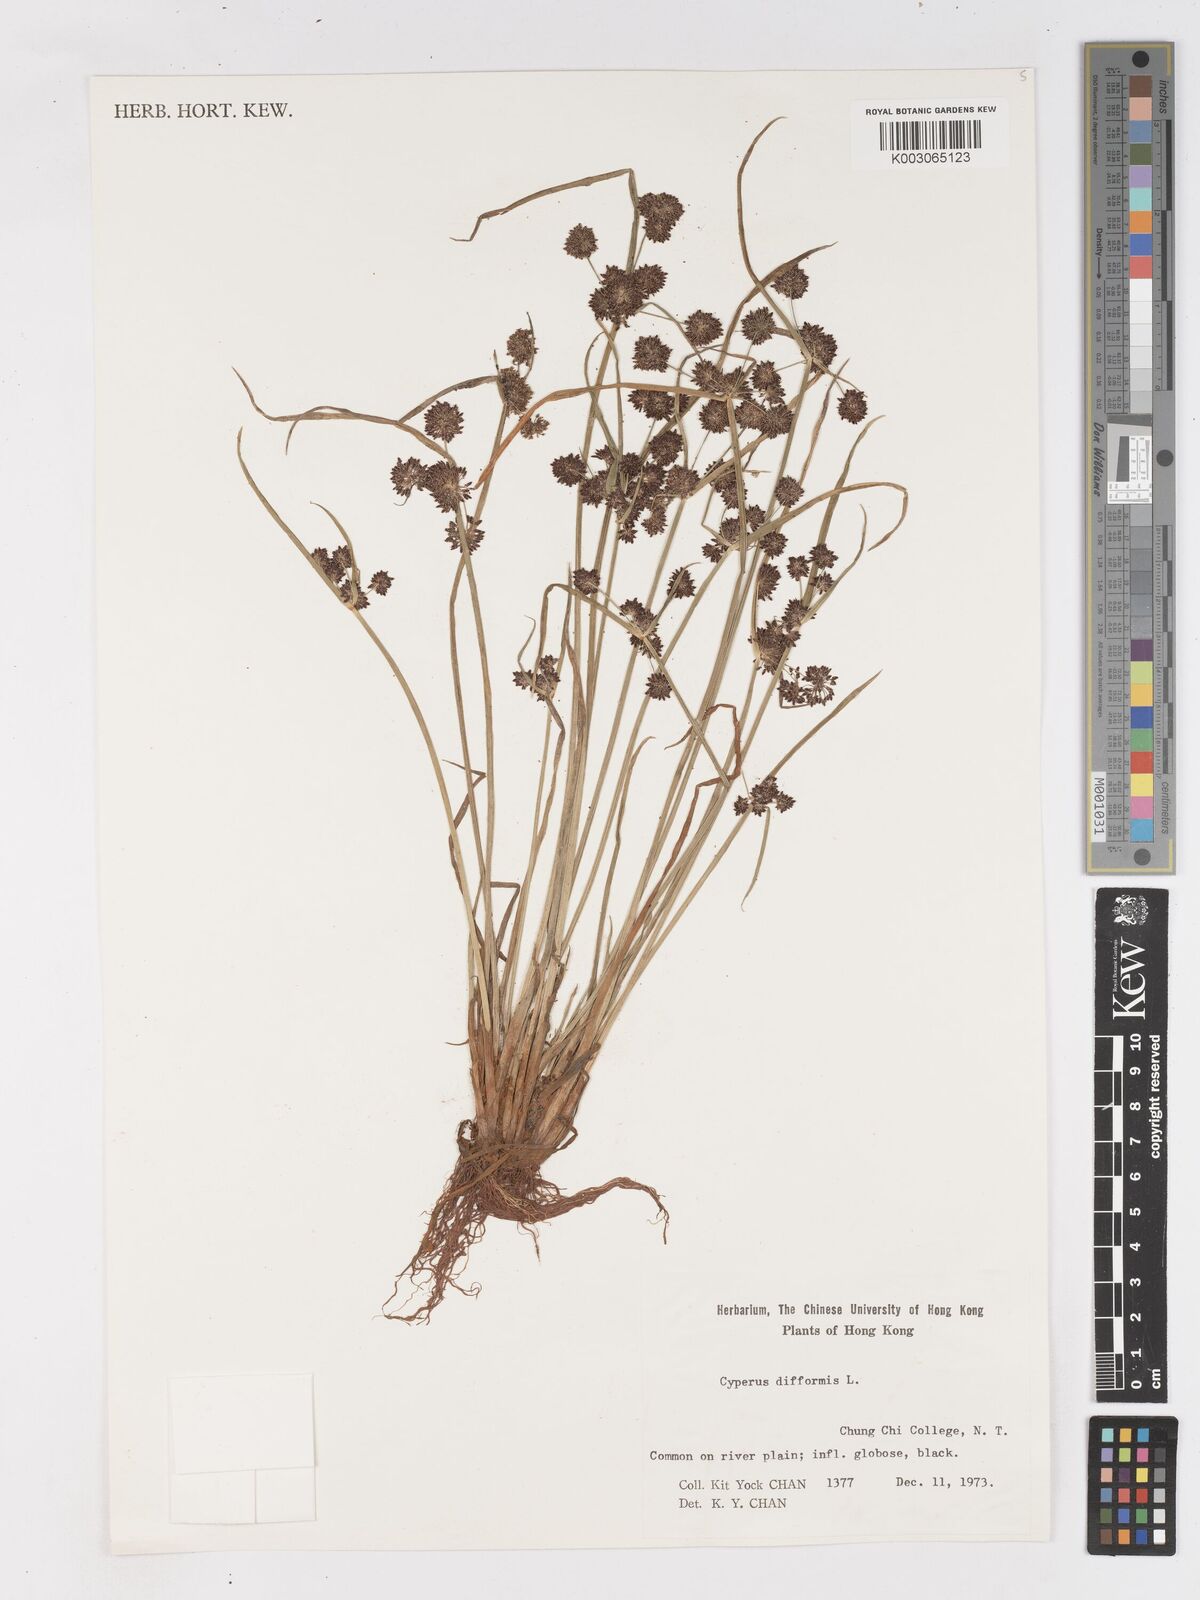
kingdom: Plantae
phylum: Tracheophyta
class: Liliopsida
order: Poales
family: Cyperaceae
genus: Cyperus
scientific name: Cyperus difformis
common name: Variable flatsedge
